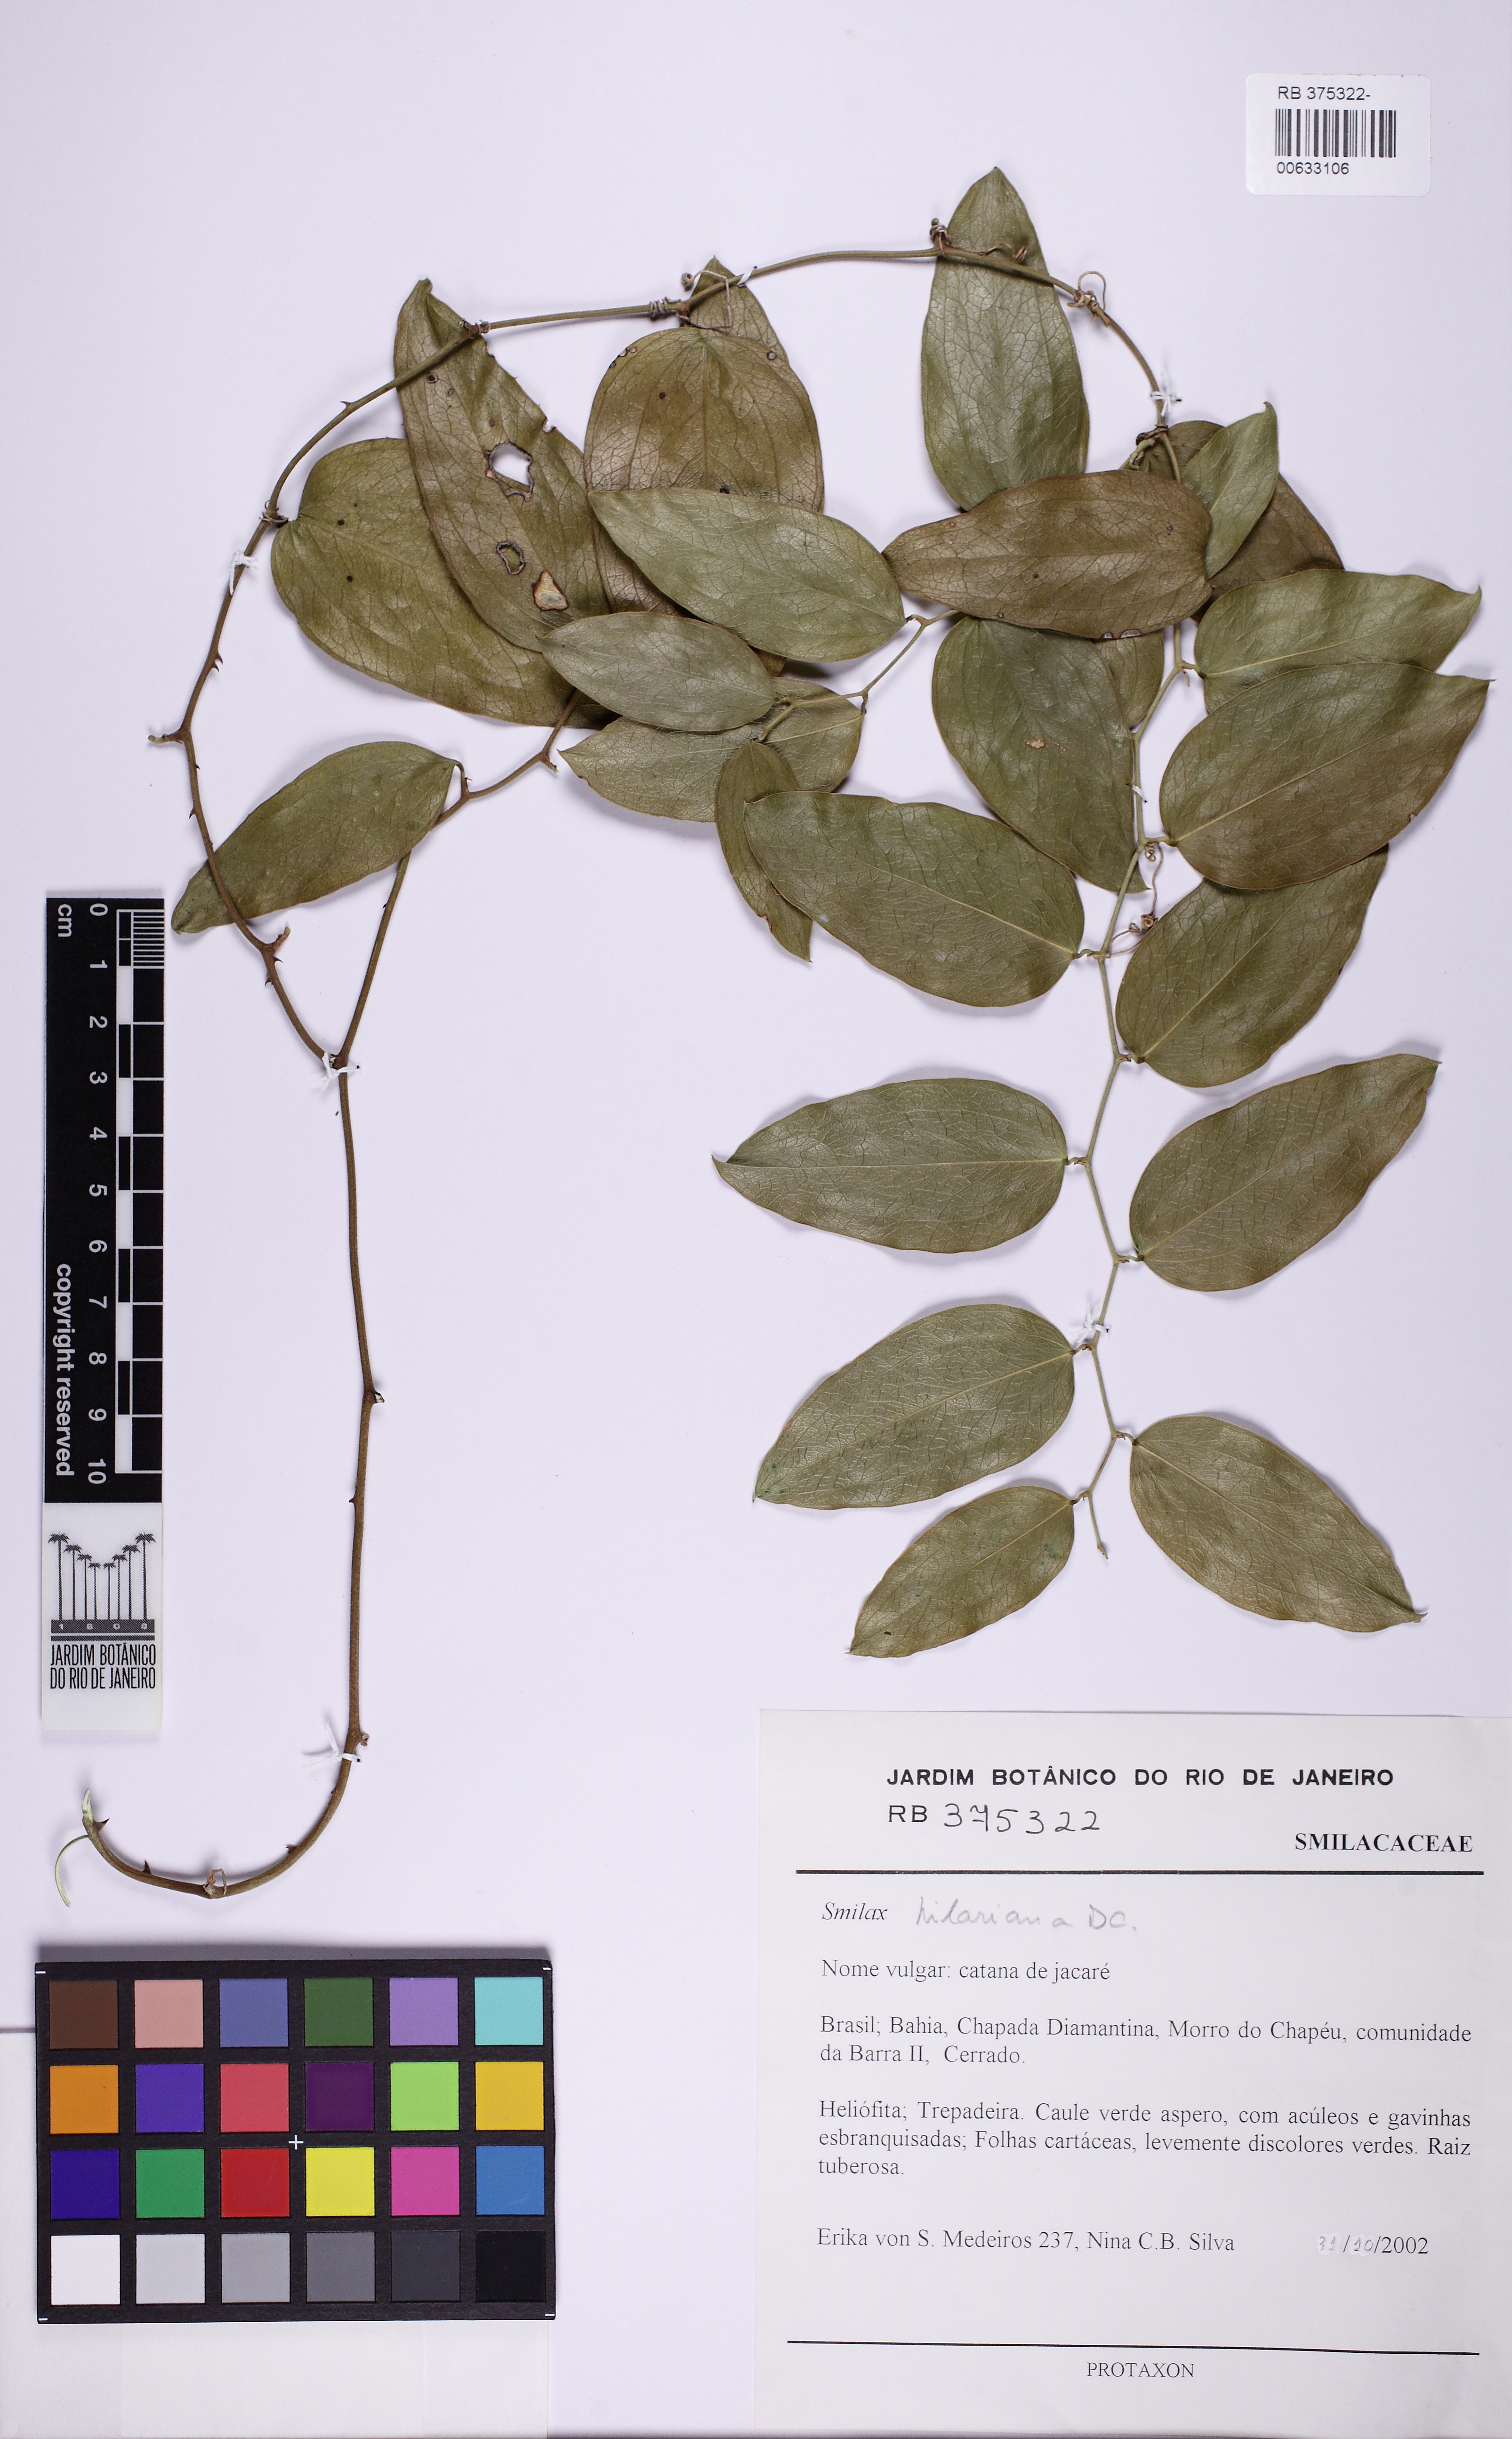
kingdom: Plantae
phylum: Tracheophyta
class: Liliopsida
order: Liliales
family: Smilacaceae
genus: Smilax
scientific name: Smilax hilariana
